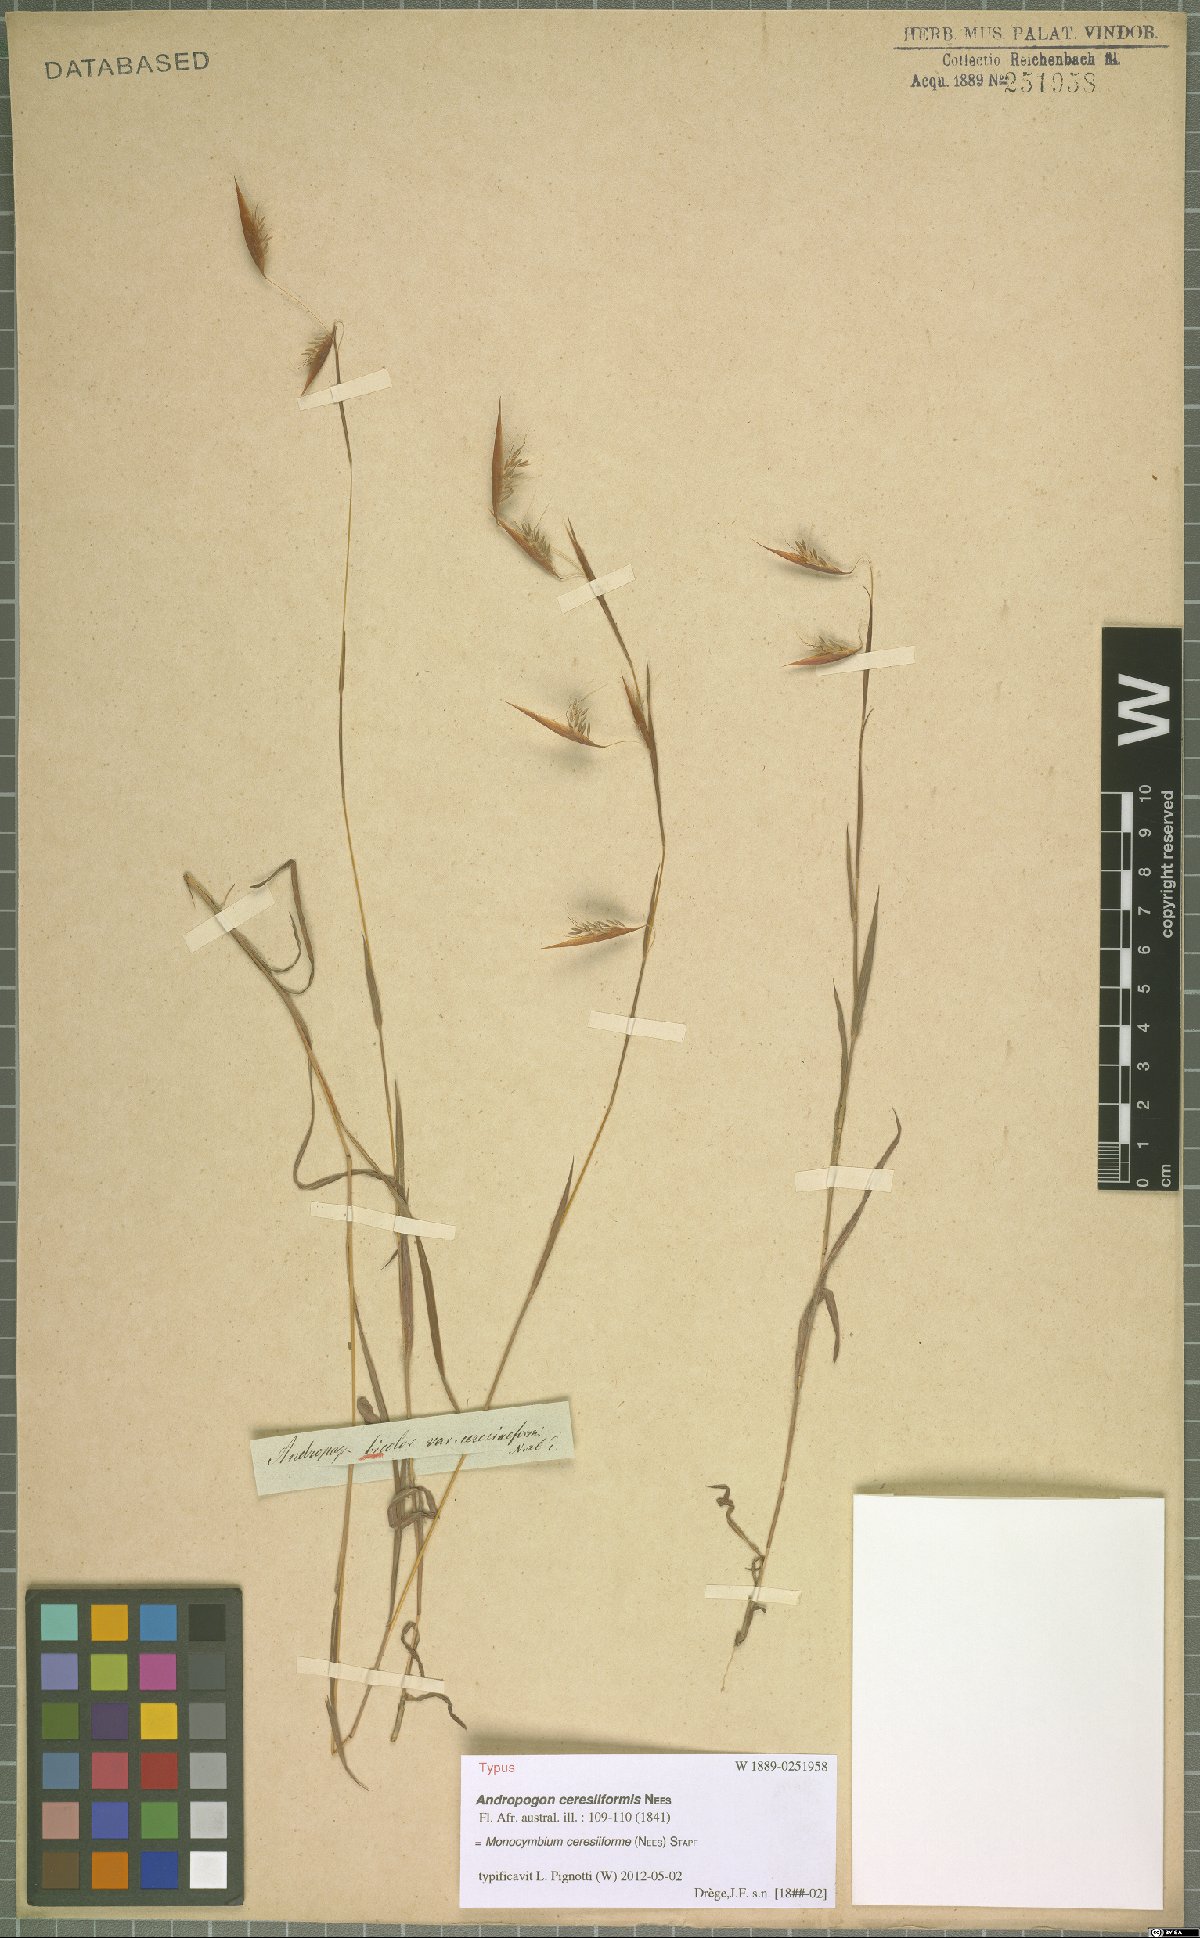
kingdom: Plantae
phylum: Tracheophyta
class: Liliopsida
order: Poales
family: Poaceae
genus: Monocymbium
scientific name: Monocymbium ceresiiforme
